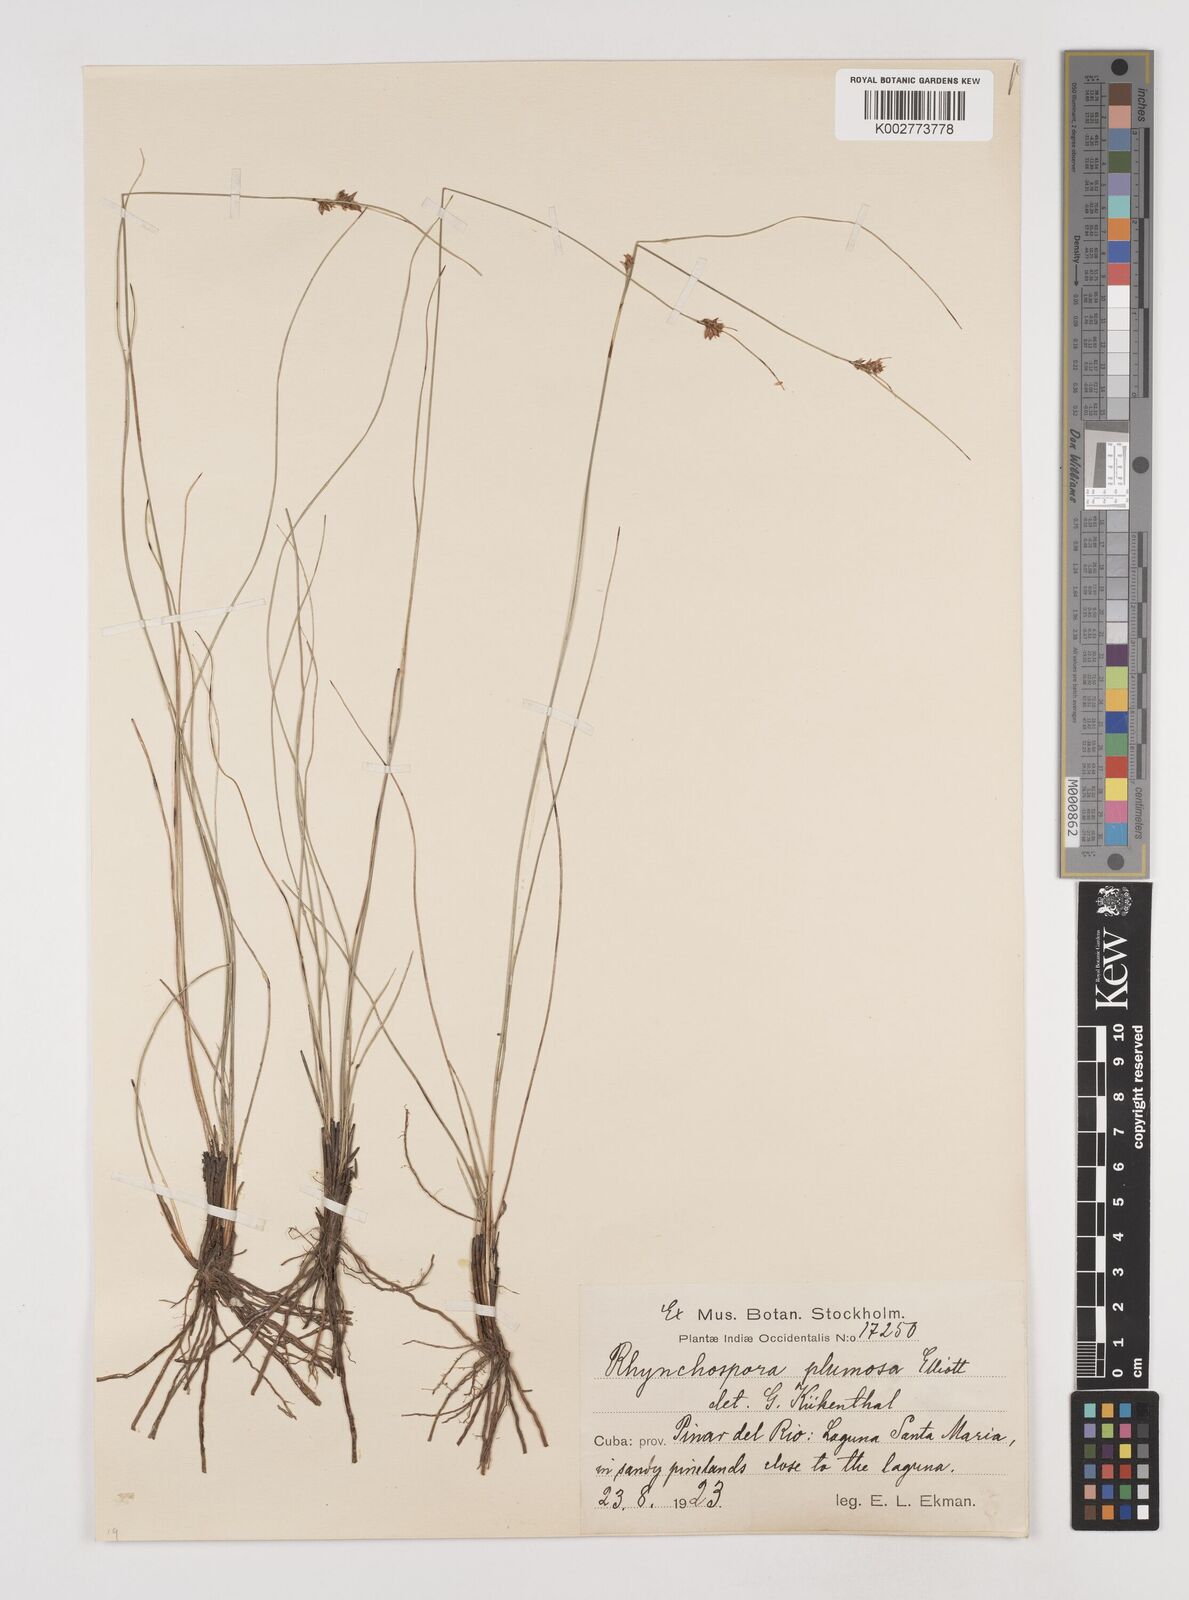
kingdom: Plantae
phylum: Tracheophyta
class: Liliopsida
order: Poales
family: Cyperaceae
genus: Rhynchospora
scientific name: Rhynchospora plumosa
